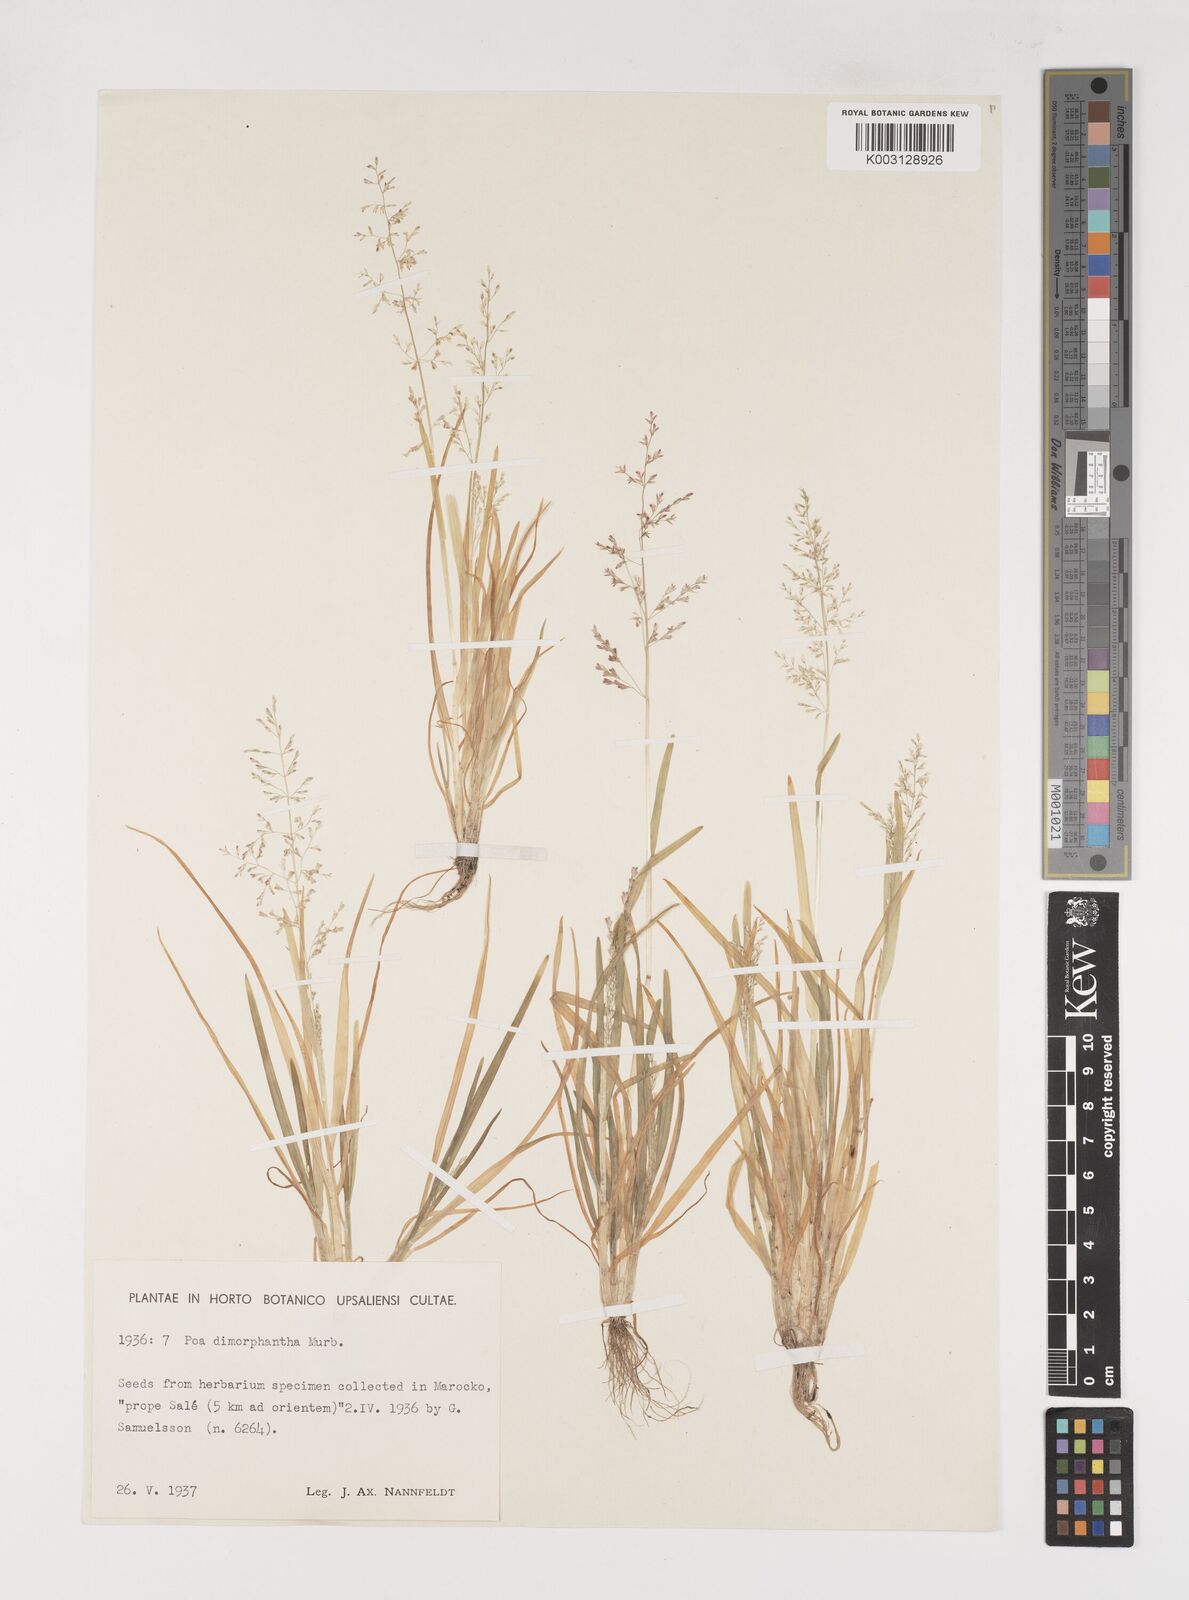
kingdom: Plantae
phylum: Tracheophyta
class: Liliopsida
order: Poales
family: Poaceae
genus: Poa
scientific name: Poa dimorphantha
